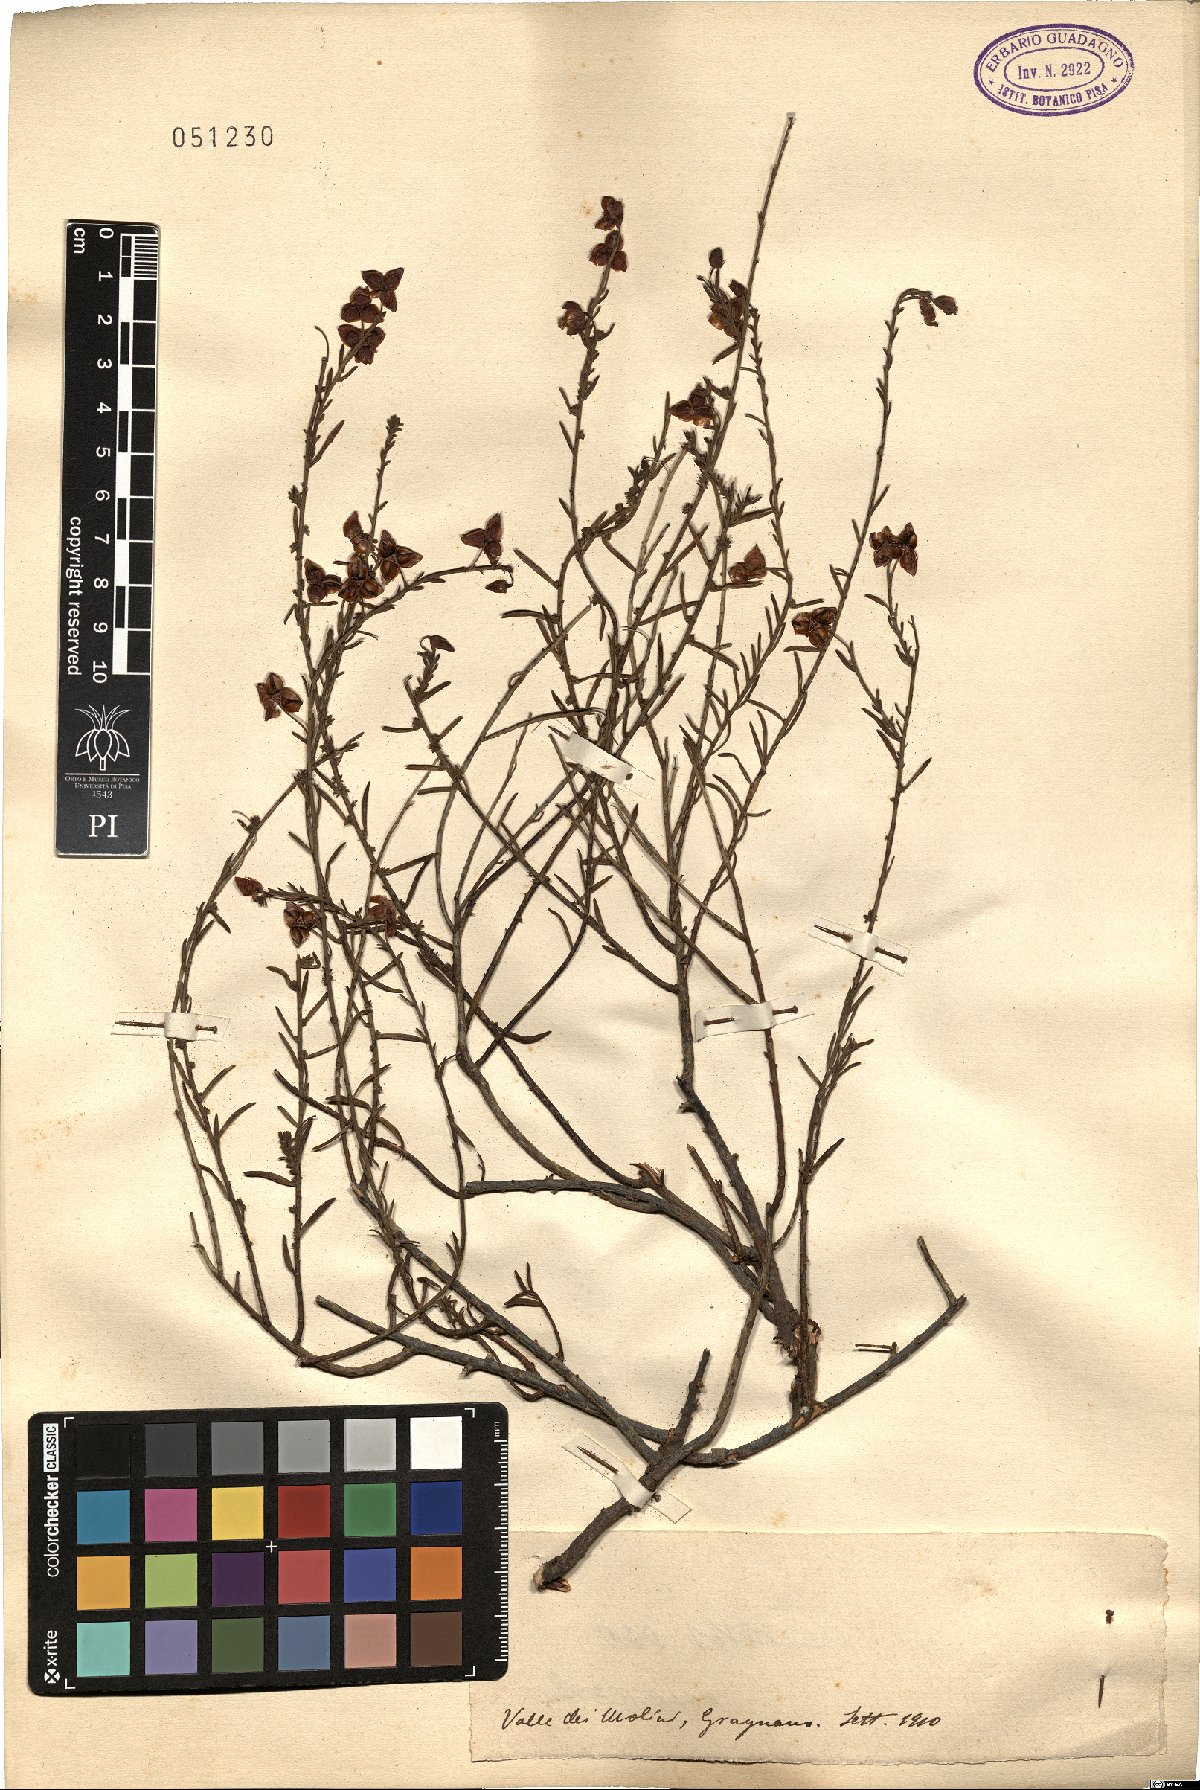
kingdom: Plantae
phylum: Tracheophyta
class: Magnoliopsida
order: Malvales
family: Cistaceae
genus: Helianthemum
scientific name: Helianthemum
